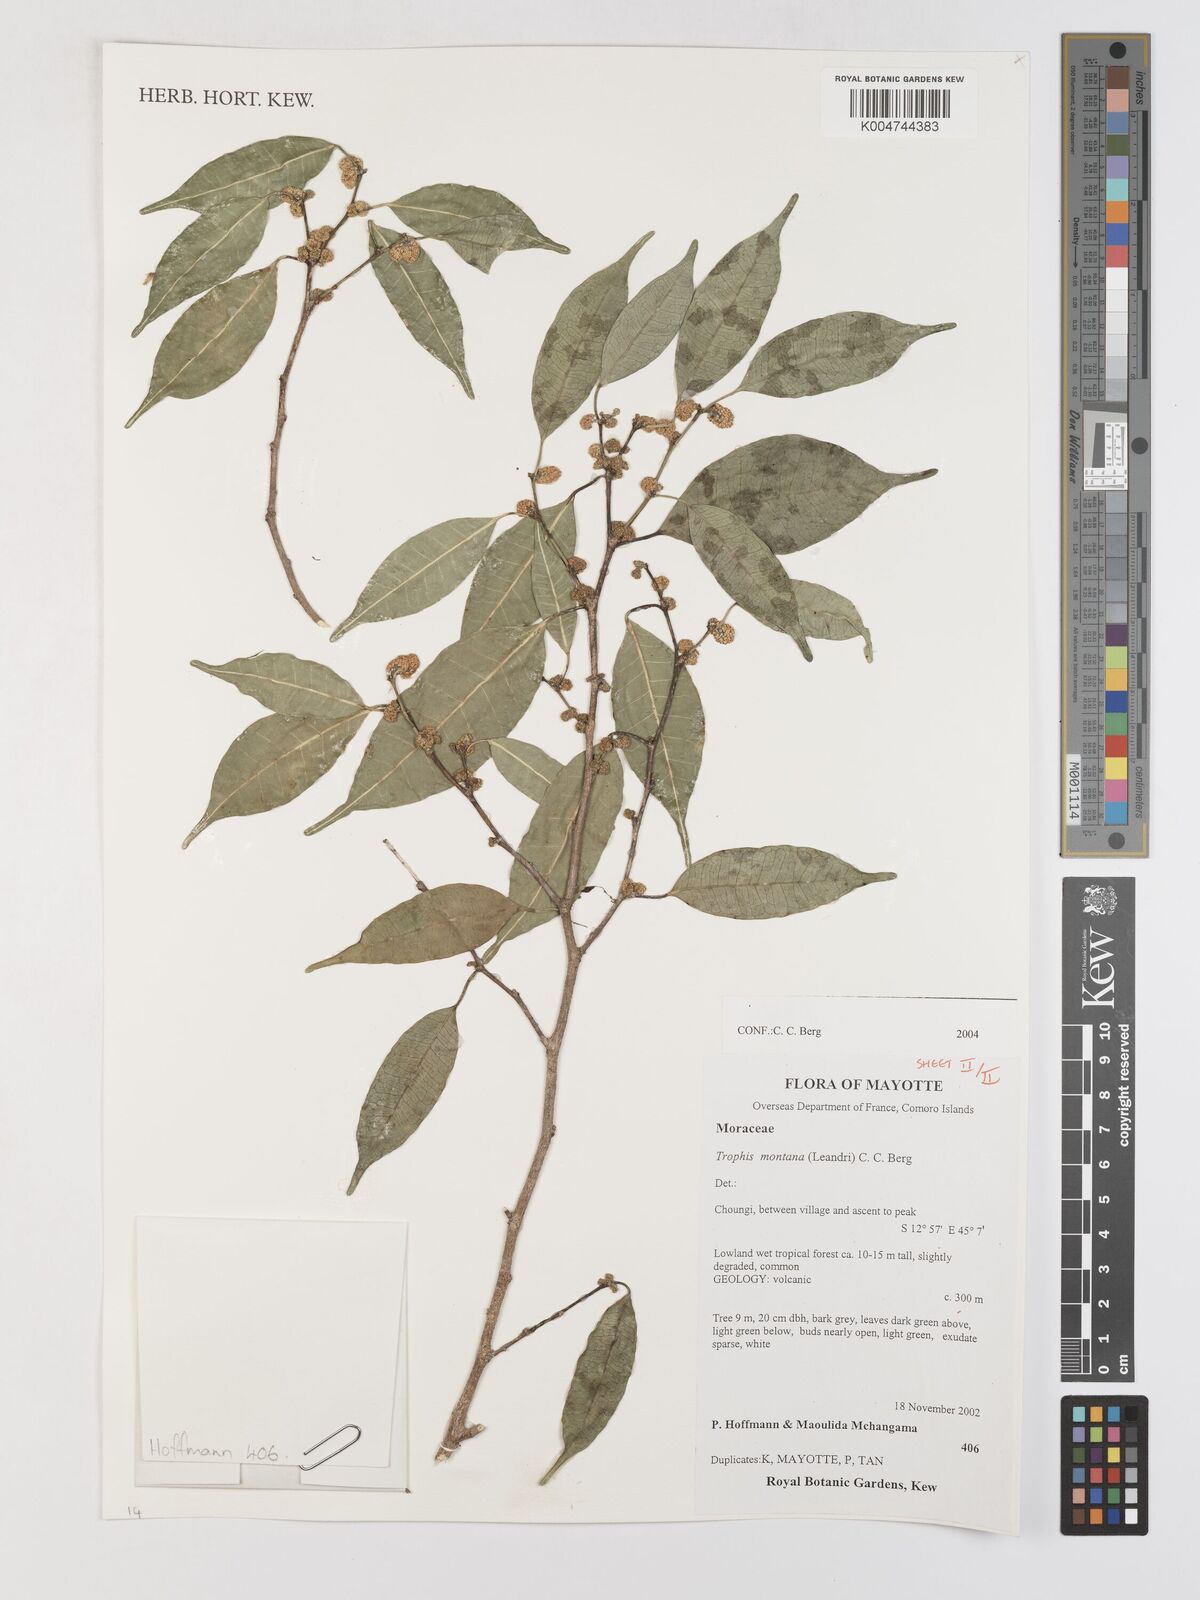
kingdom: Plantae
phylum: Tracheophyta
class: Magnoliopsida
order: Rosales
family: Moraceae
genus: Maillardia
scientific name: Maillardia montana
